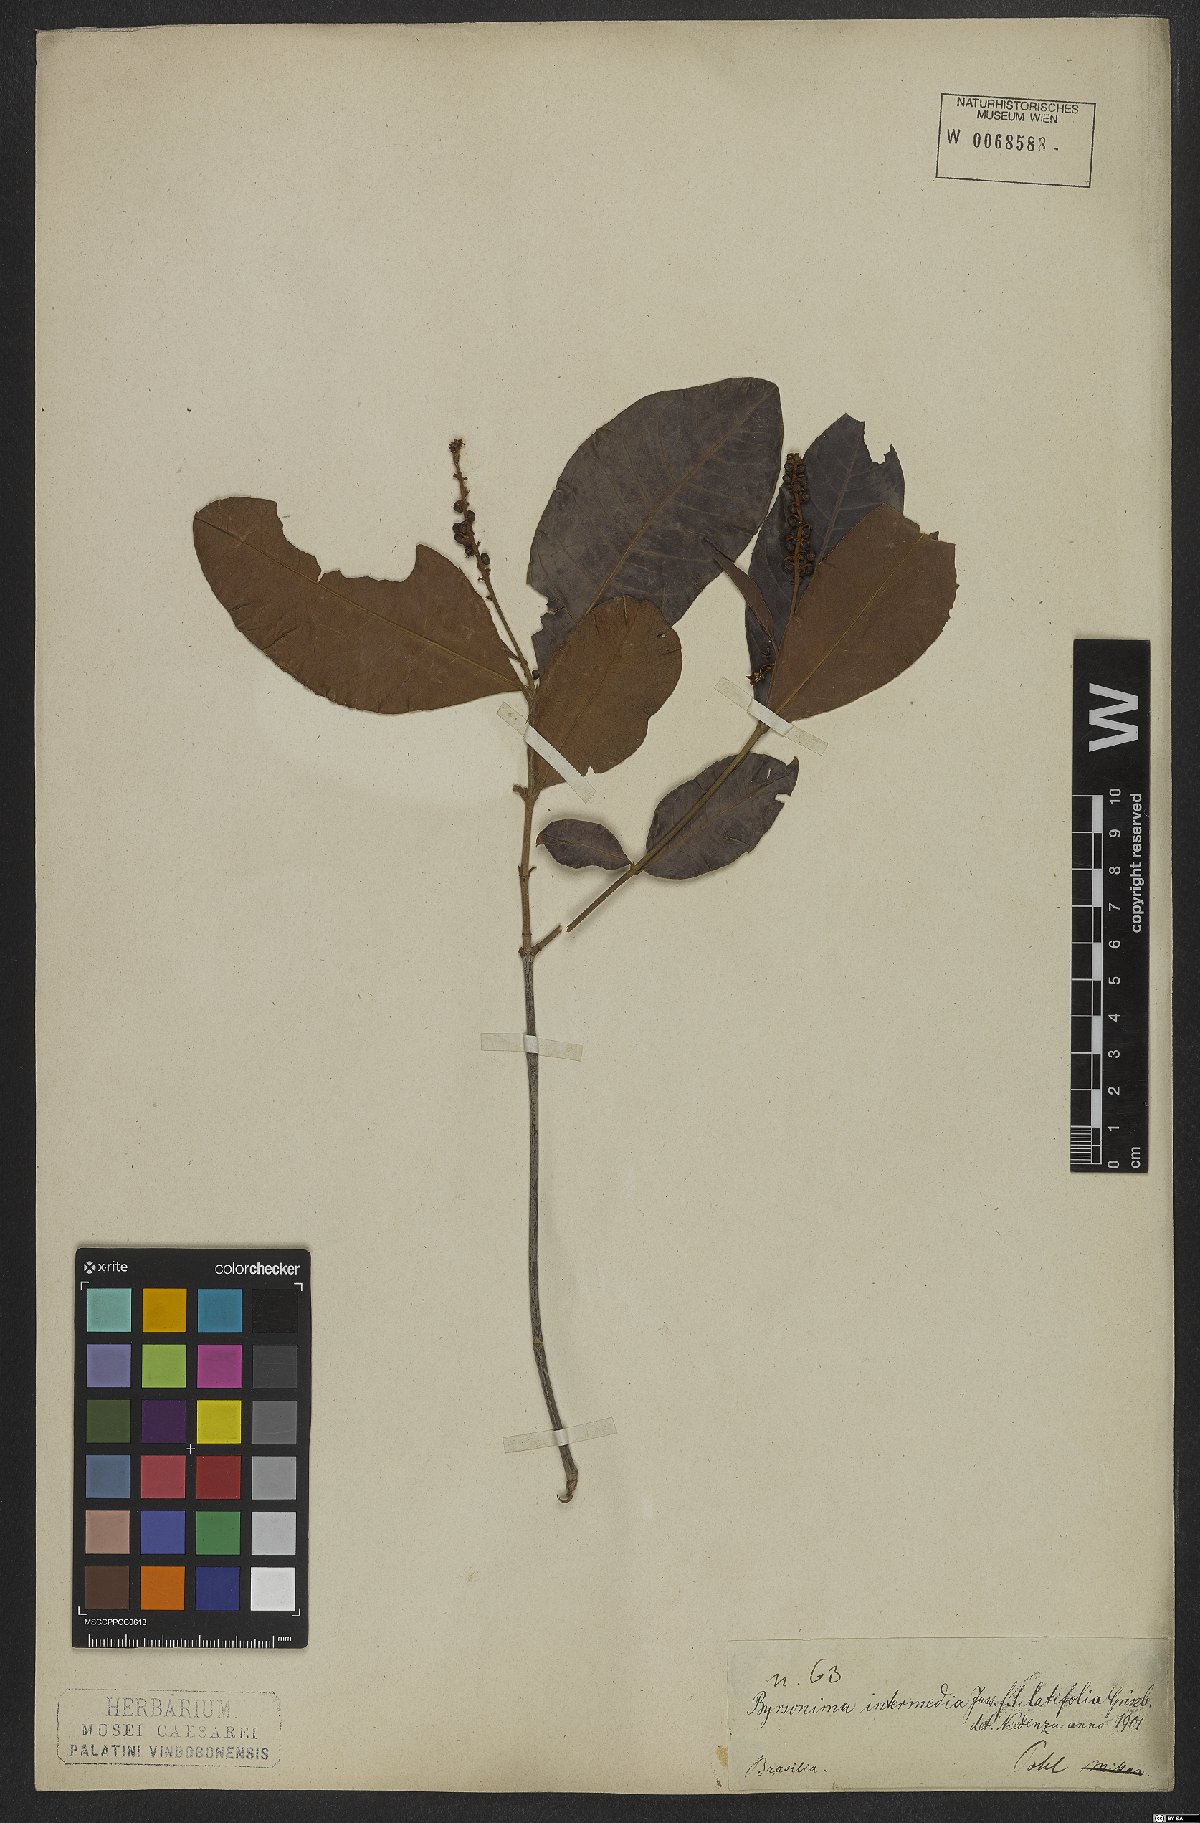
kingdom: Plantae
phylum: Tracheophyta
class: Magnoliopsida
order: Malpighiales
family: Malpighiaceae
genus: Byrsonima
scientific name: Byrsonima intermedia
